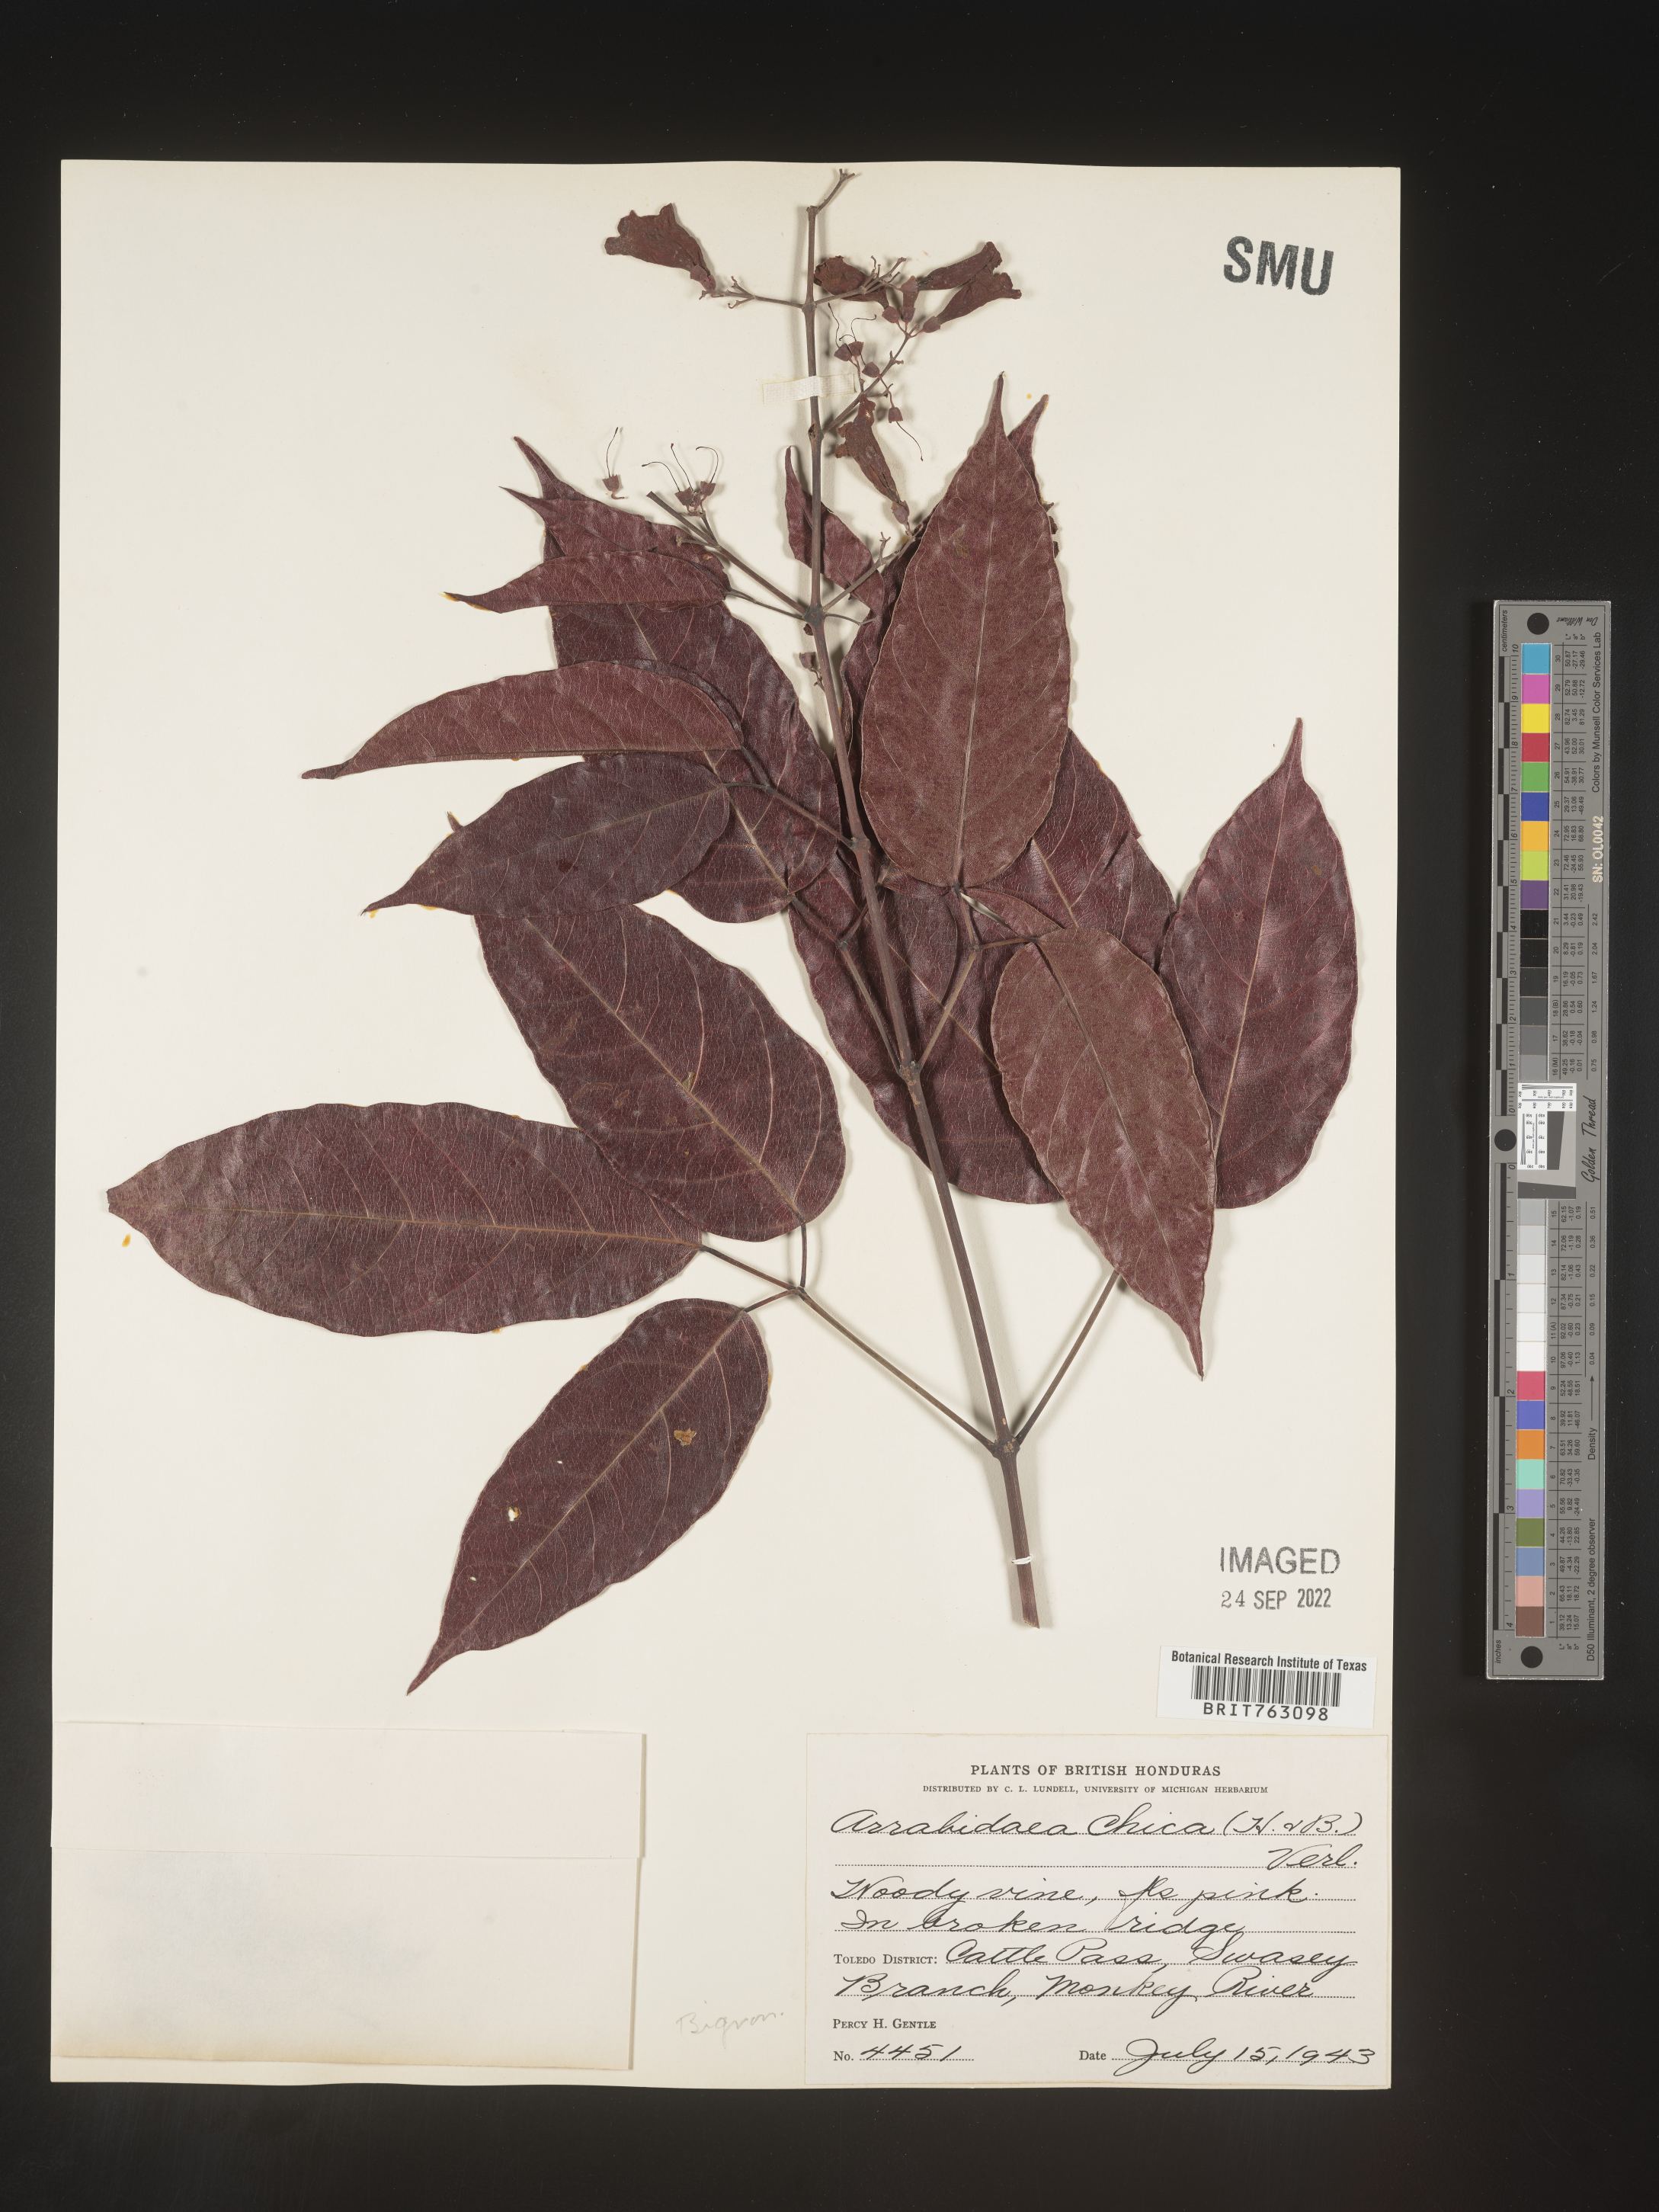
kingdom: Plantae
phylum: Tracheophyta
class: Magnoliopsida
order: Rosales
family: Rhamnaceae
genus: Arrabidaea
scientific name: Arrabidaea
